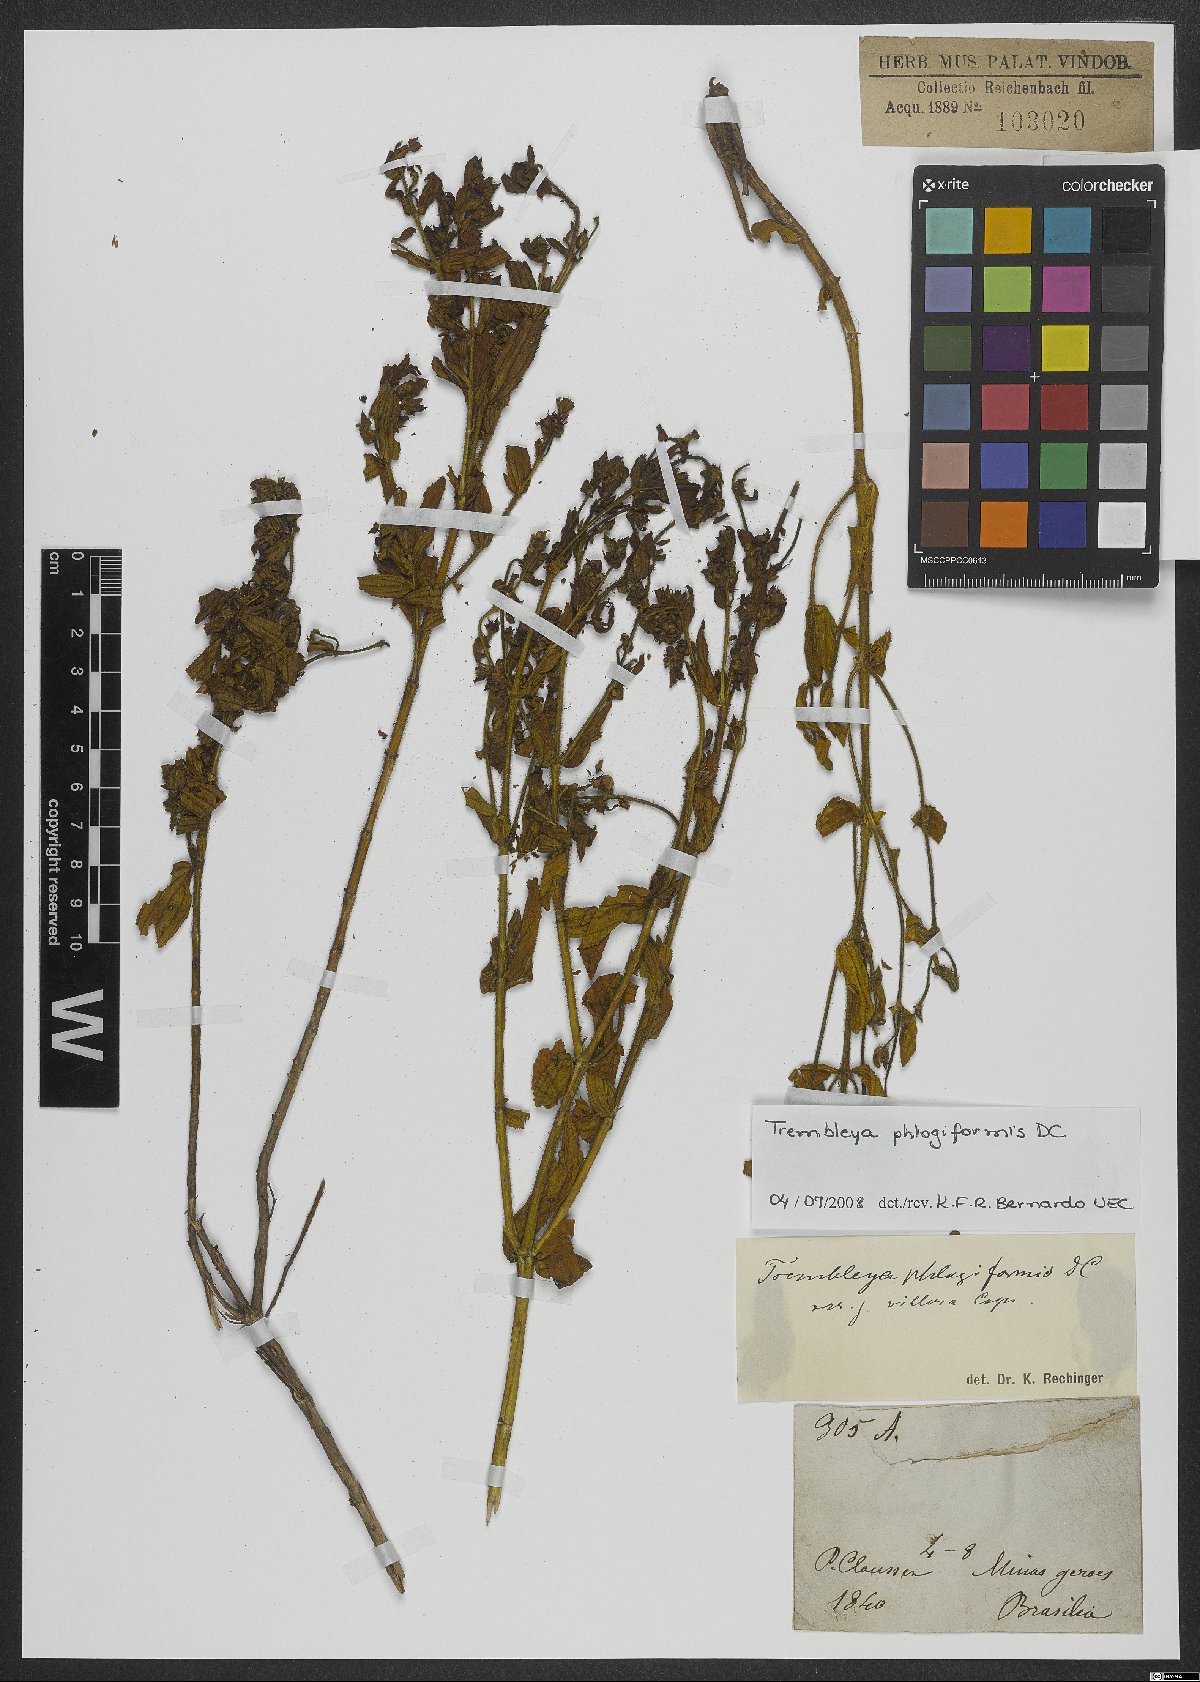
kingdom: Plantae
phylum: Tracheophyta
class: Magnoliopsida
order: Myrtales
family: Melastomataceae
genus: Microlicia
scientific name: Microlicia phlogiformis
